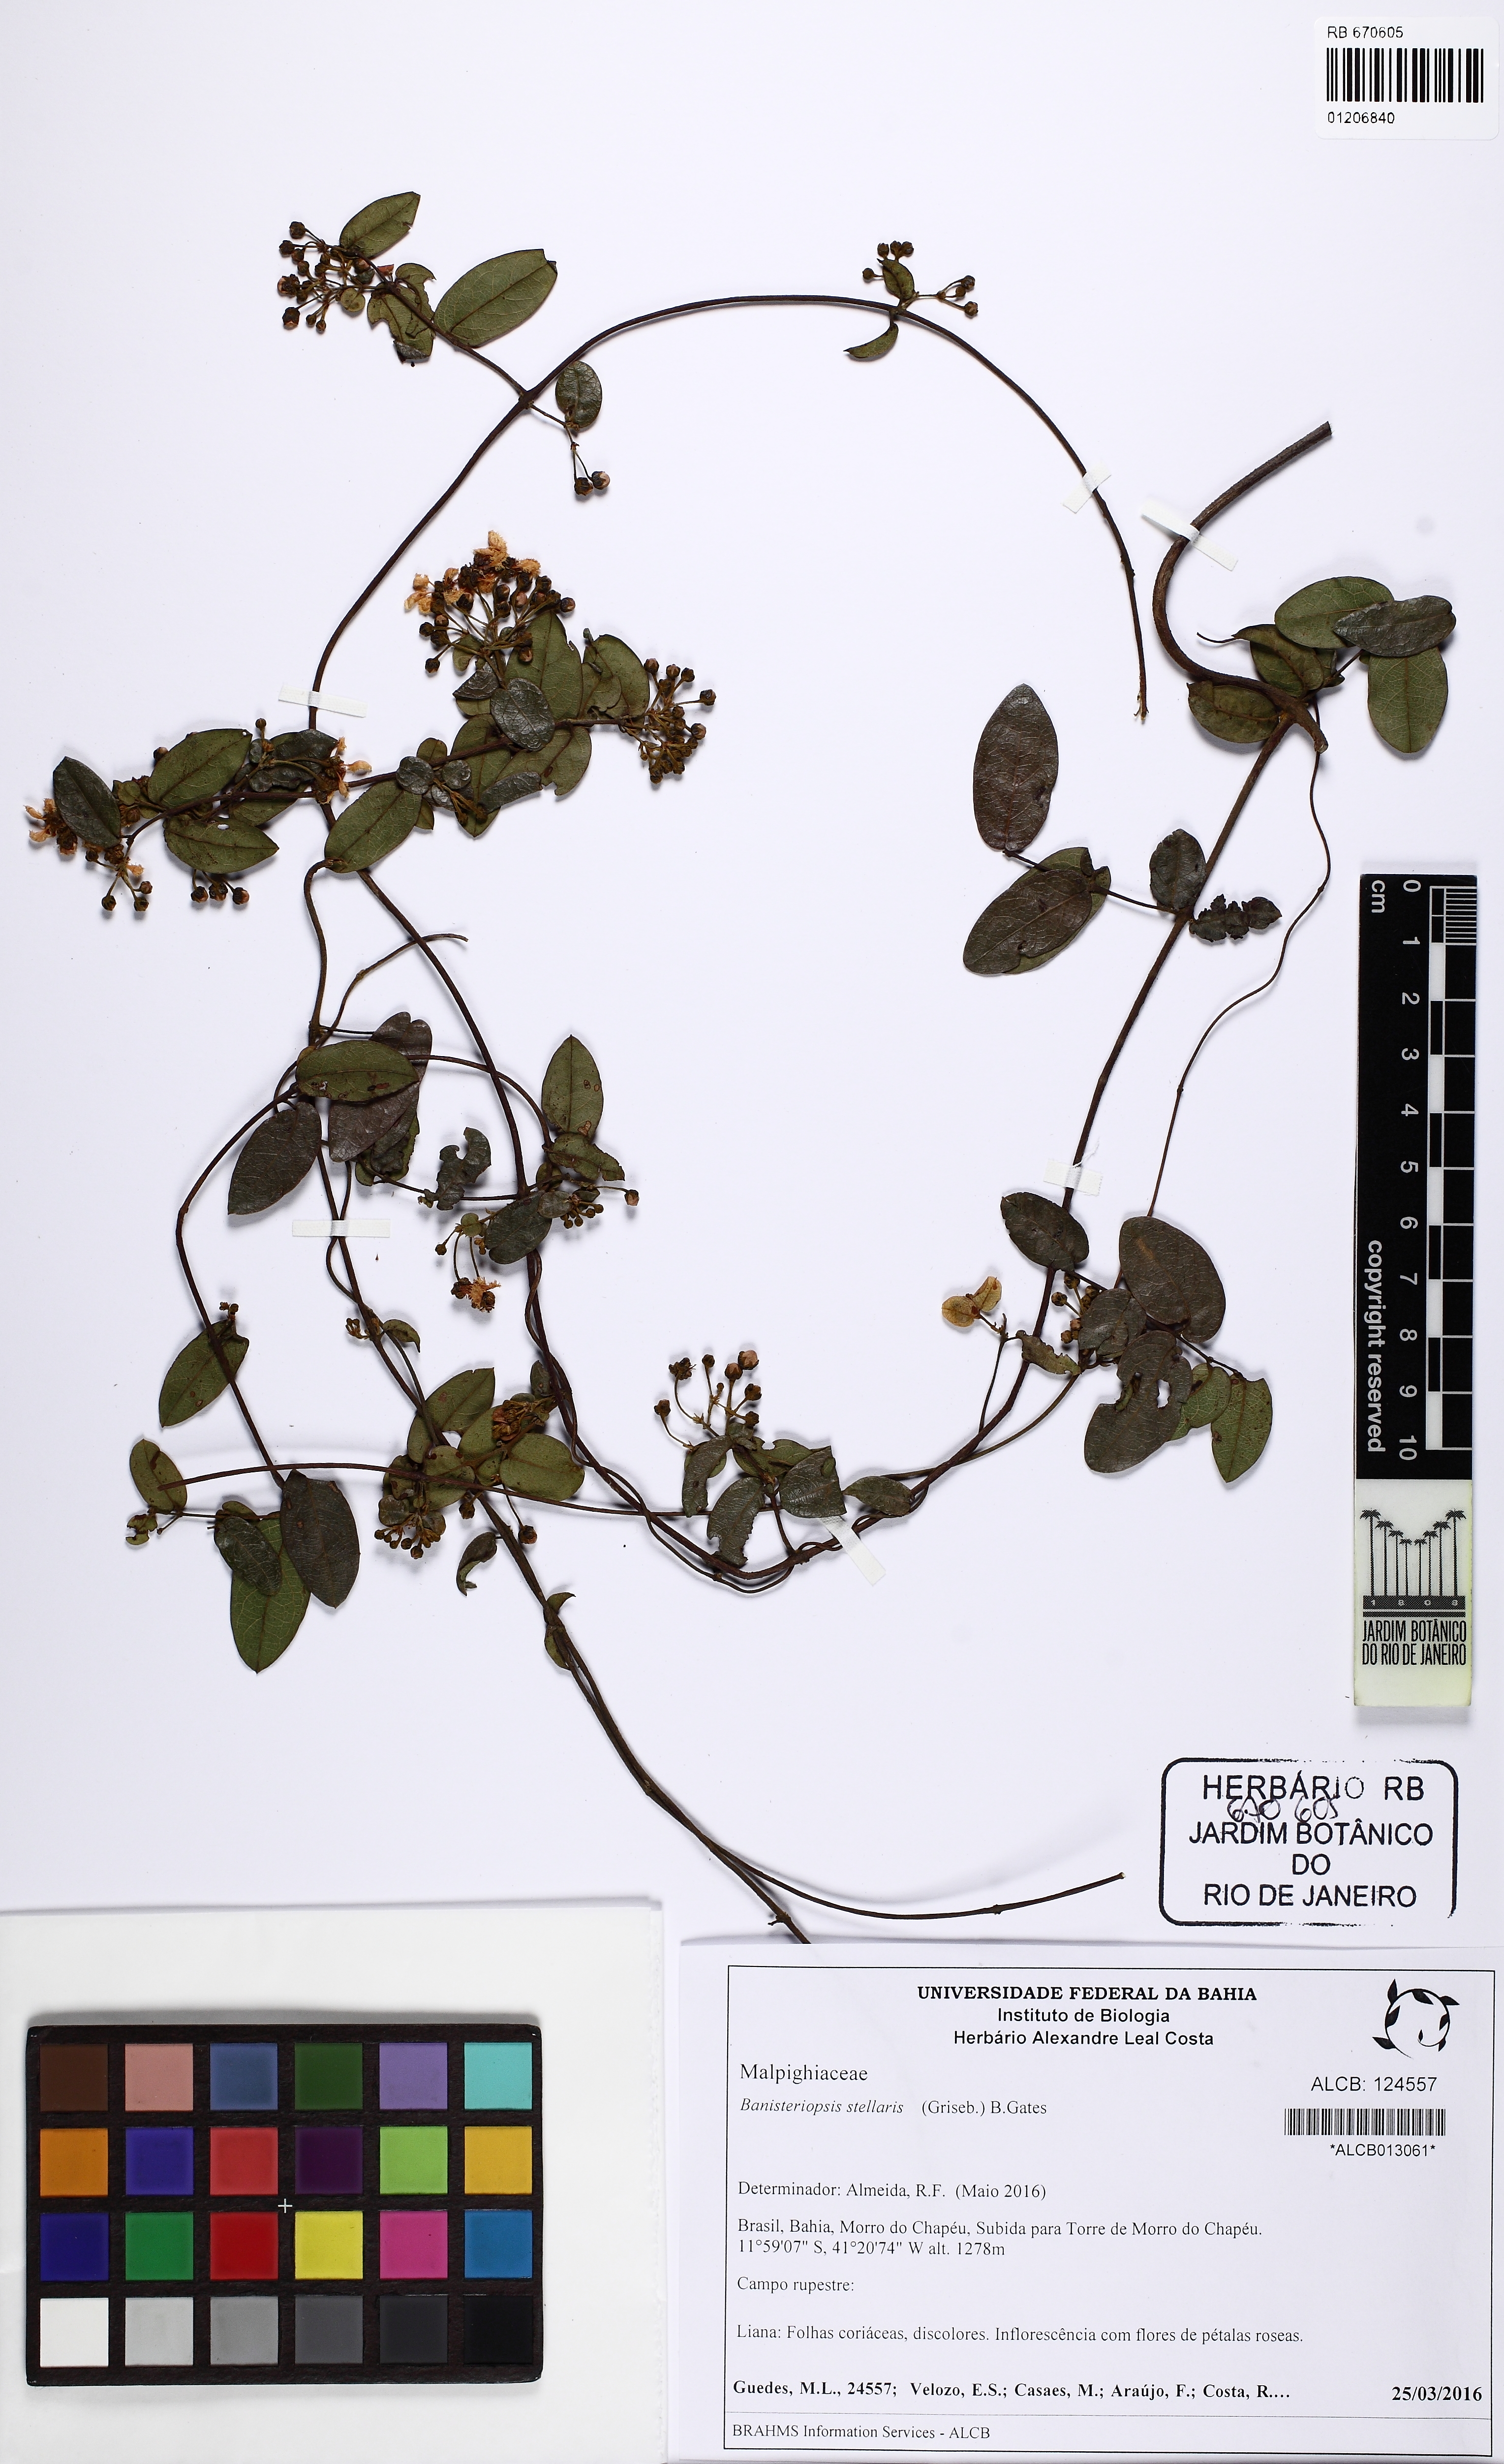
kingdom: Plantae
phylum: Tracheophyta
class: Magnoliopsida
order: Malpighiales
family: Malpighiaceae
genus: Banisteriopsis
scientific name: Banisteriopsis stellaris
